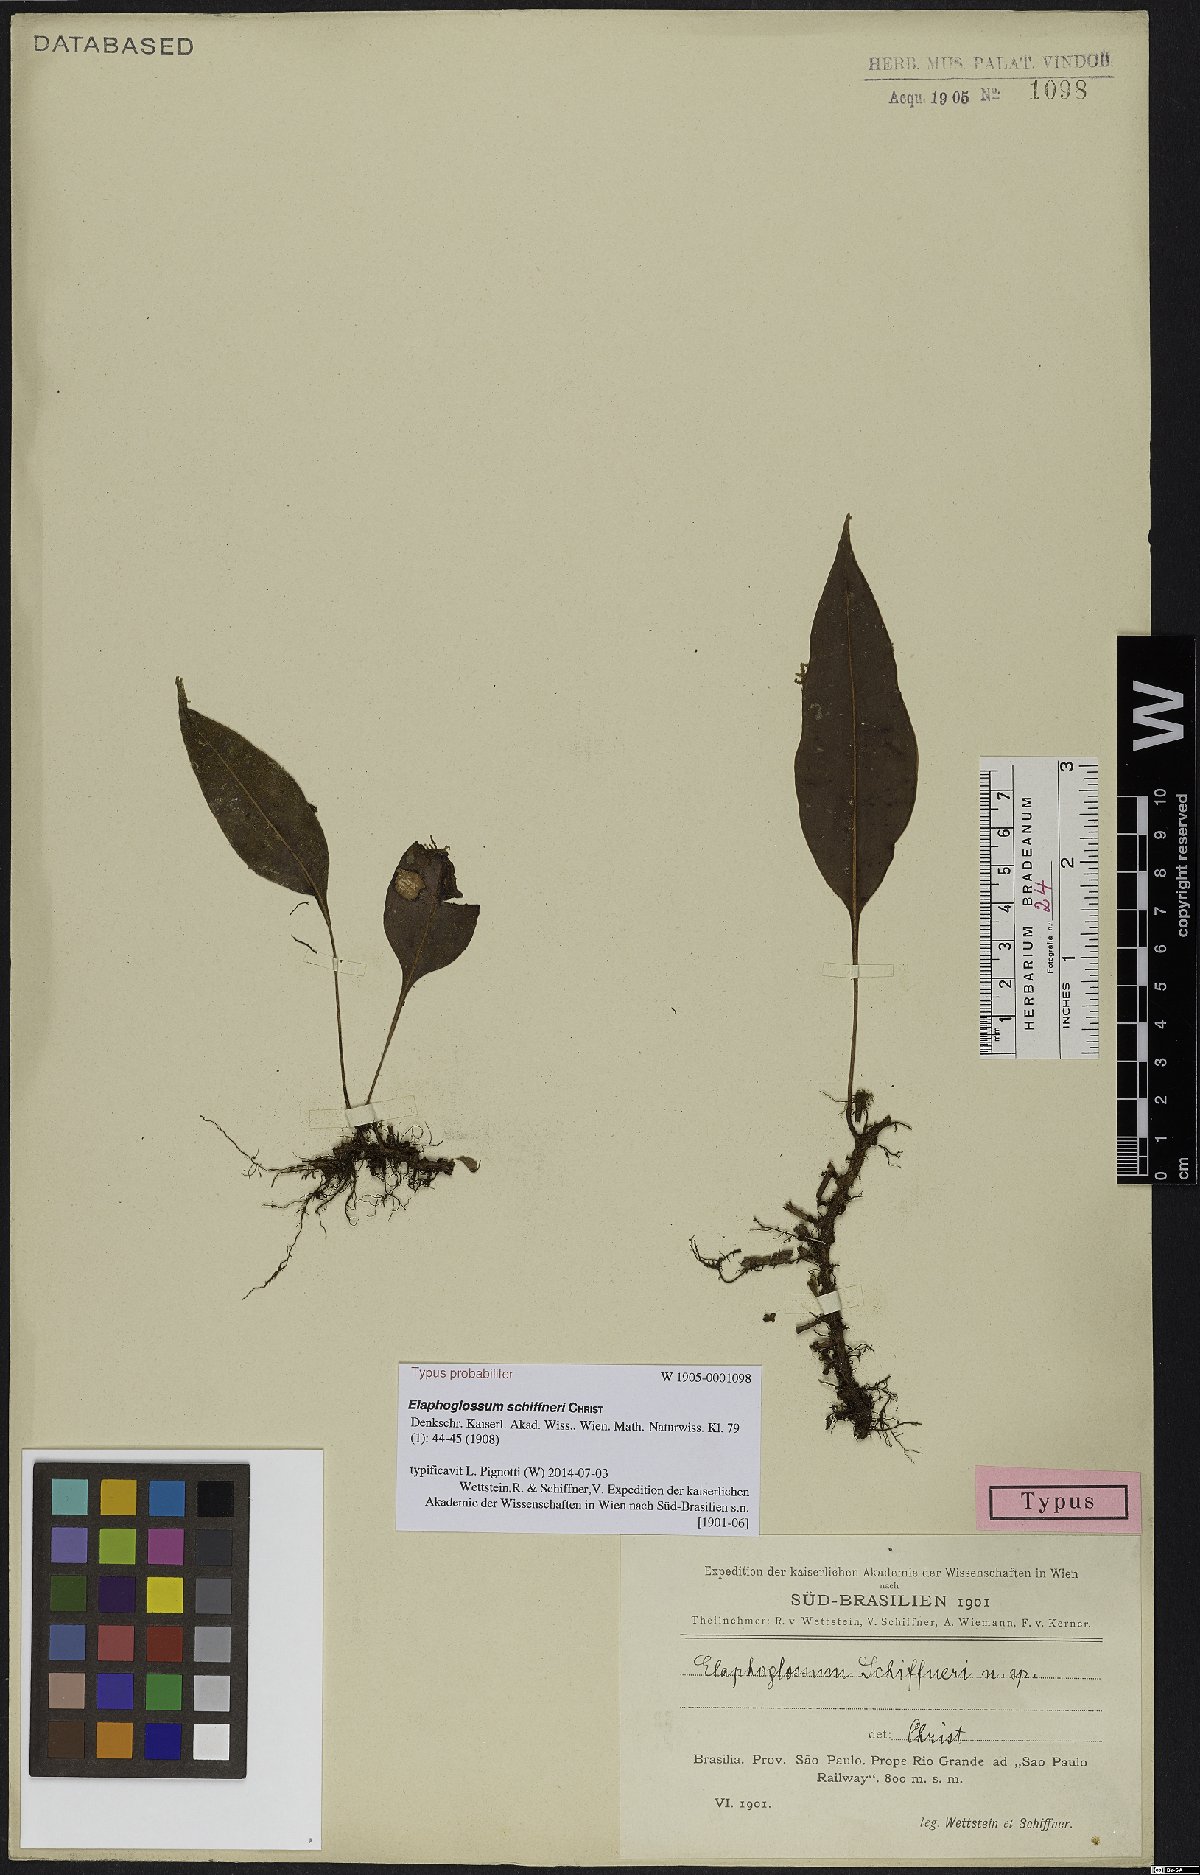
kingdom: Plantae
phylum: Tracheophyta
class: Polypodiopsida
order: Polypodiales
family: Dryopteridaceae
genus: Elaphoglossum
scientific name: Elaphoglossum vagans
